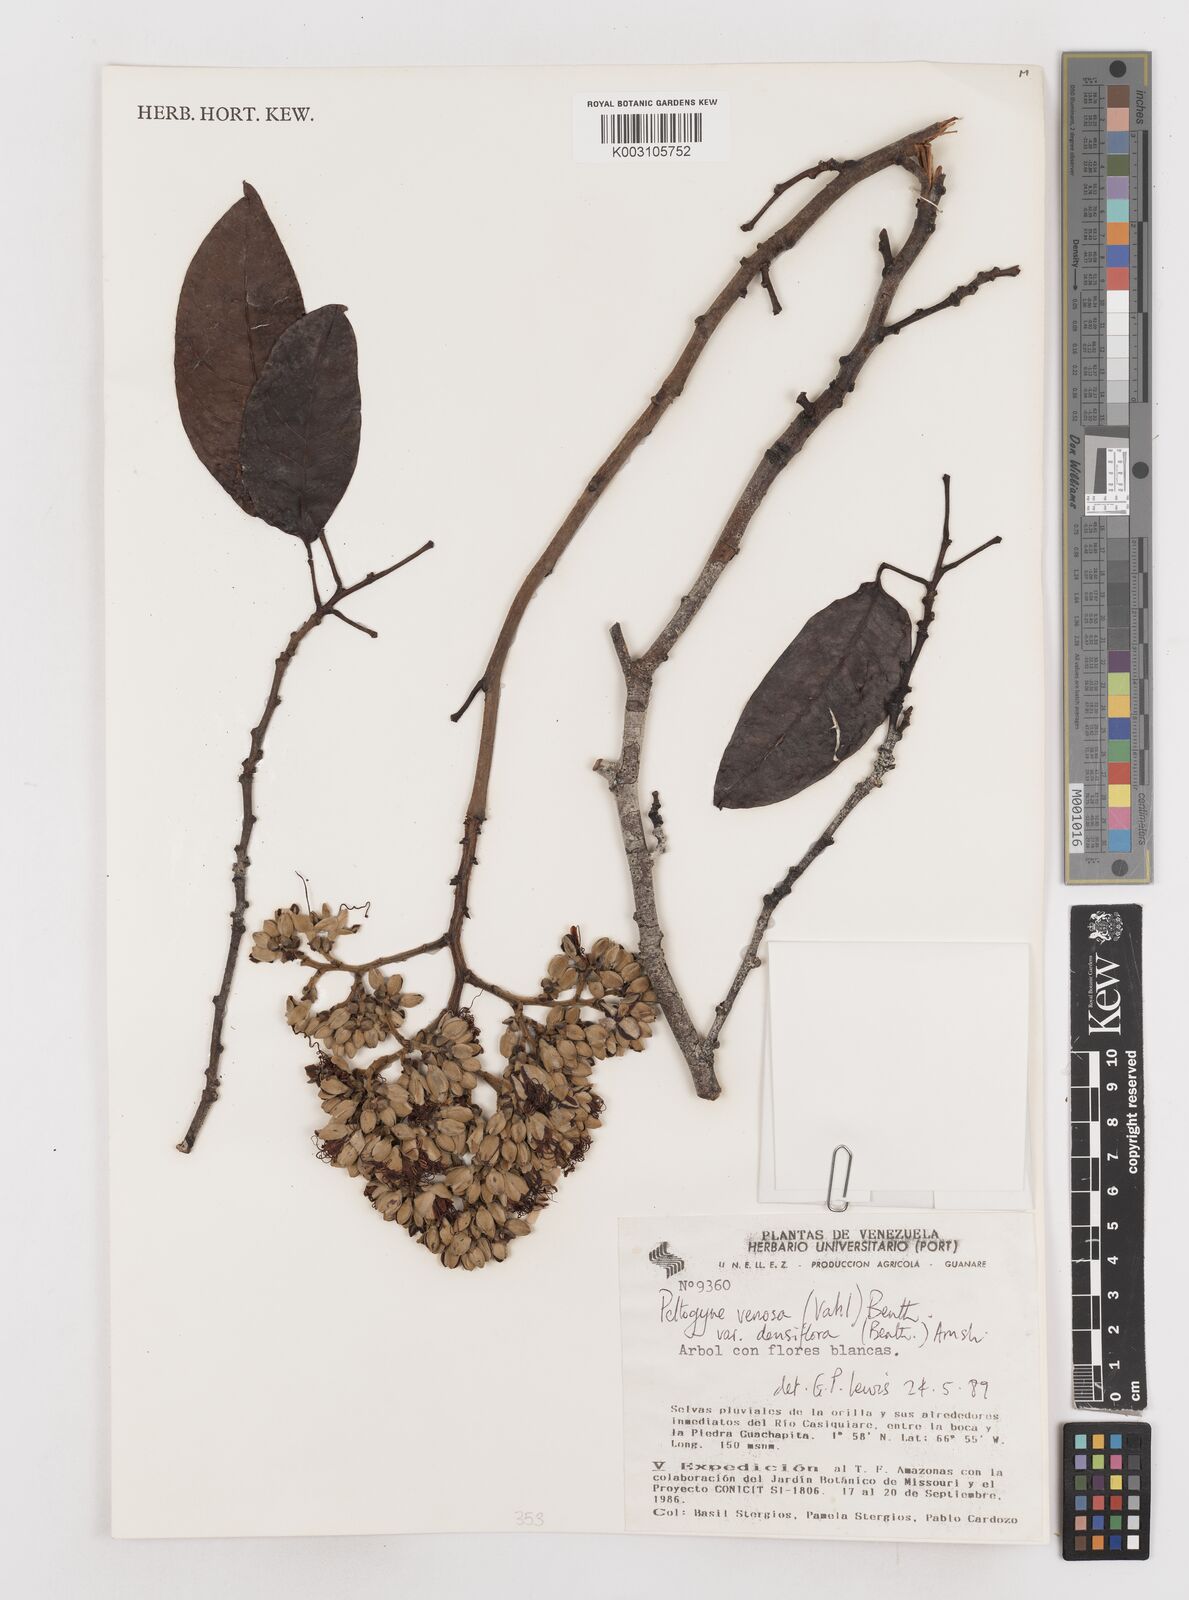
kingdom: Plantae
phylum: Tracheophyta
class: Magnoliopsida
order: Fabales
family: Fabaceae
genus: Peltogyne
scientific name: Peltogyne venosa
